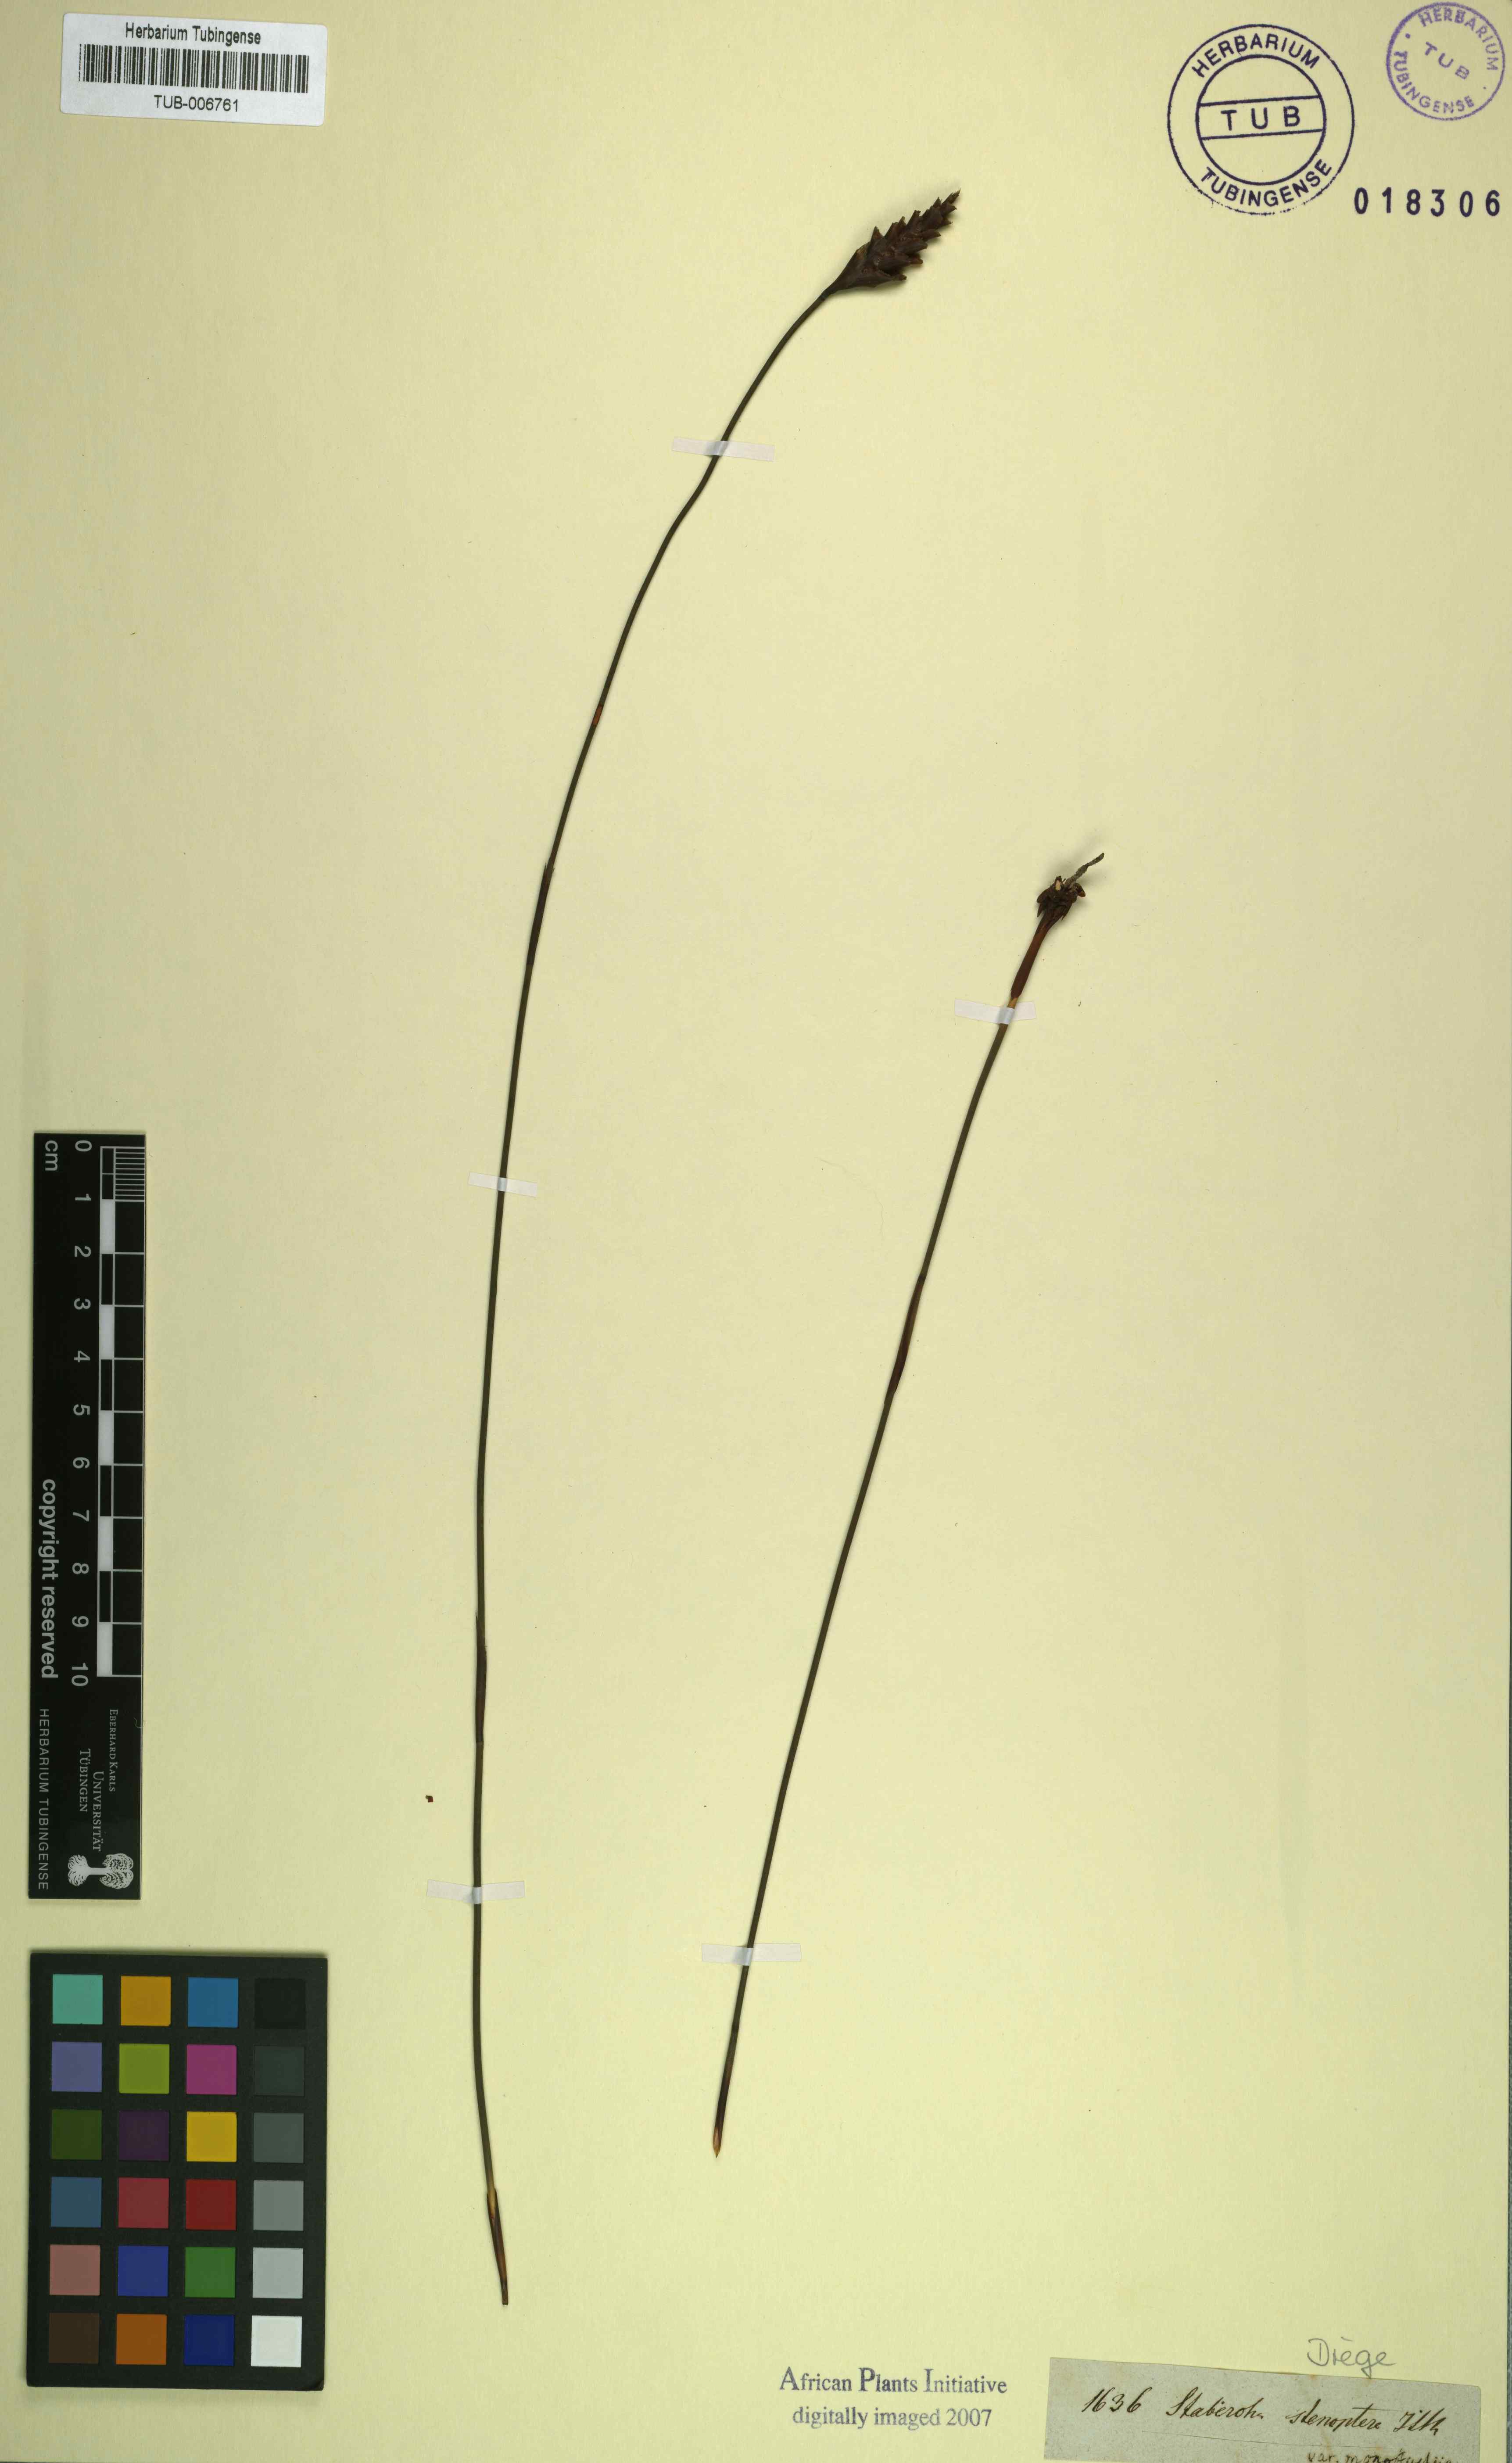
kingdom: Plantae
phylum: Tracheophyta
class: Liliopsida
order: Poales
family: Restionaceae
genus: Staberoha
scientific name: Staberoha distachyos
